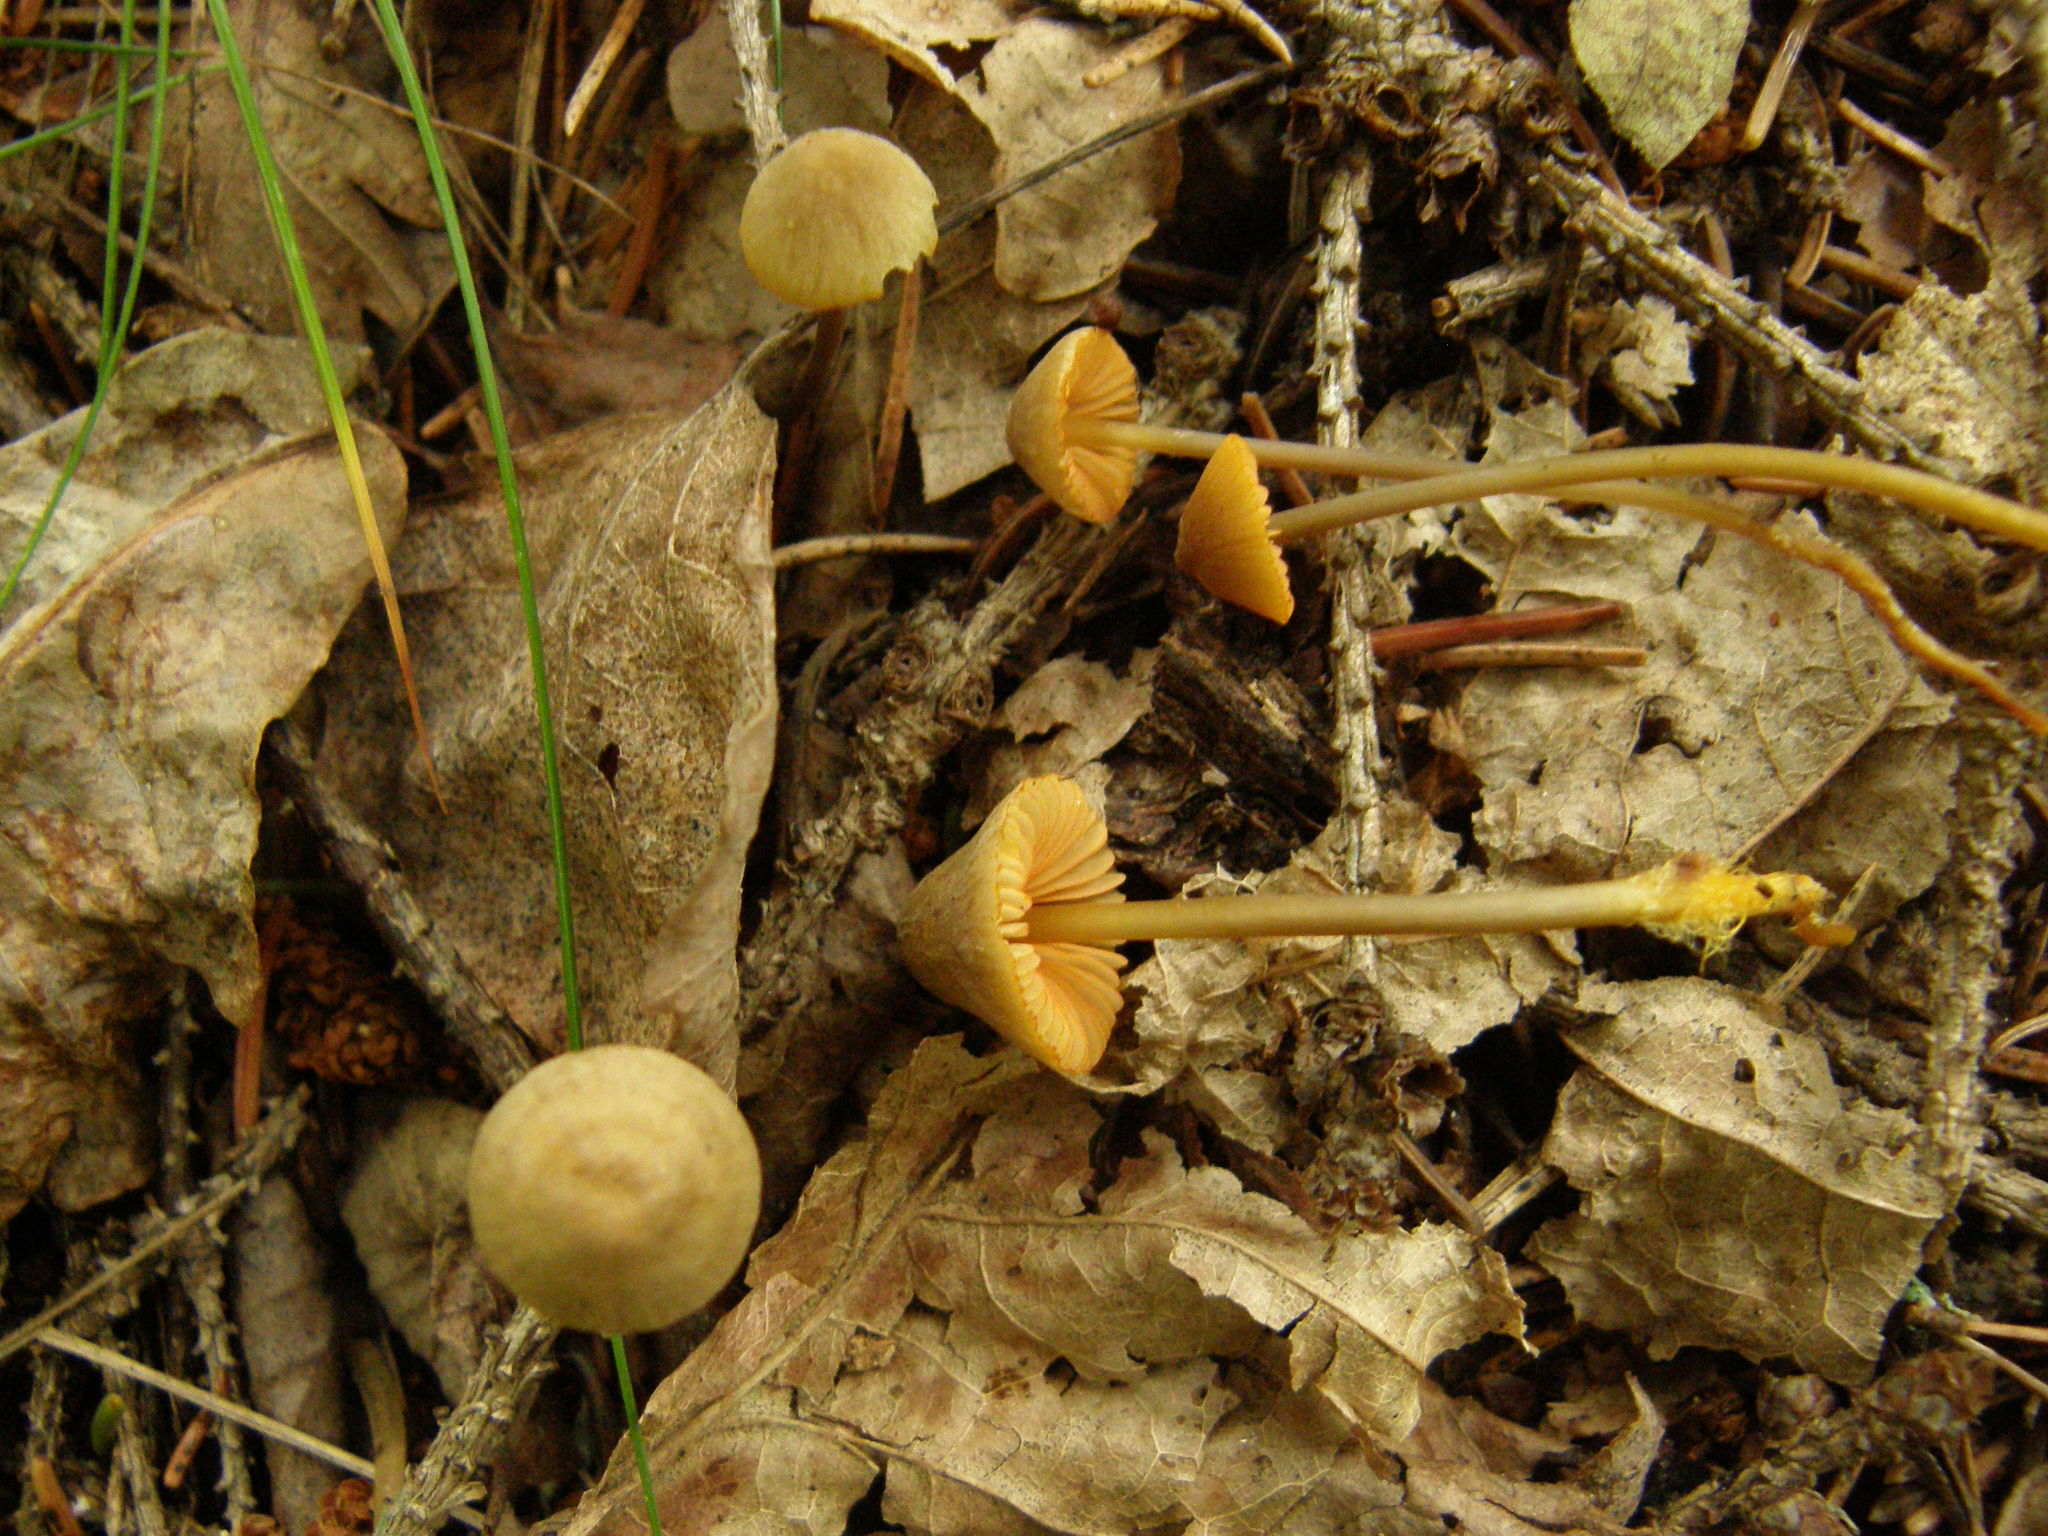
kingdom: Fungi
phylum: Basidiomycota
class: Agaricomycetes
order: Agaricales
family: Mycenaceae
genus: Mycena
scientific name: Mycena aurantiomarginata
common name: Golden edge bonnet
